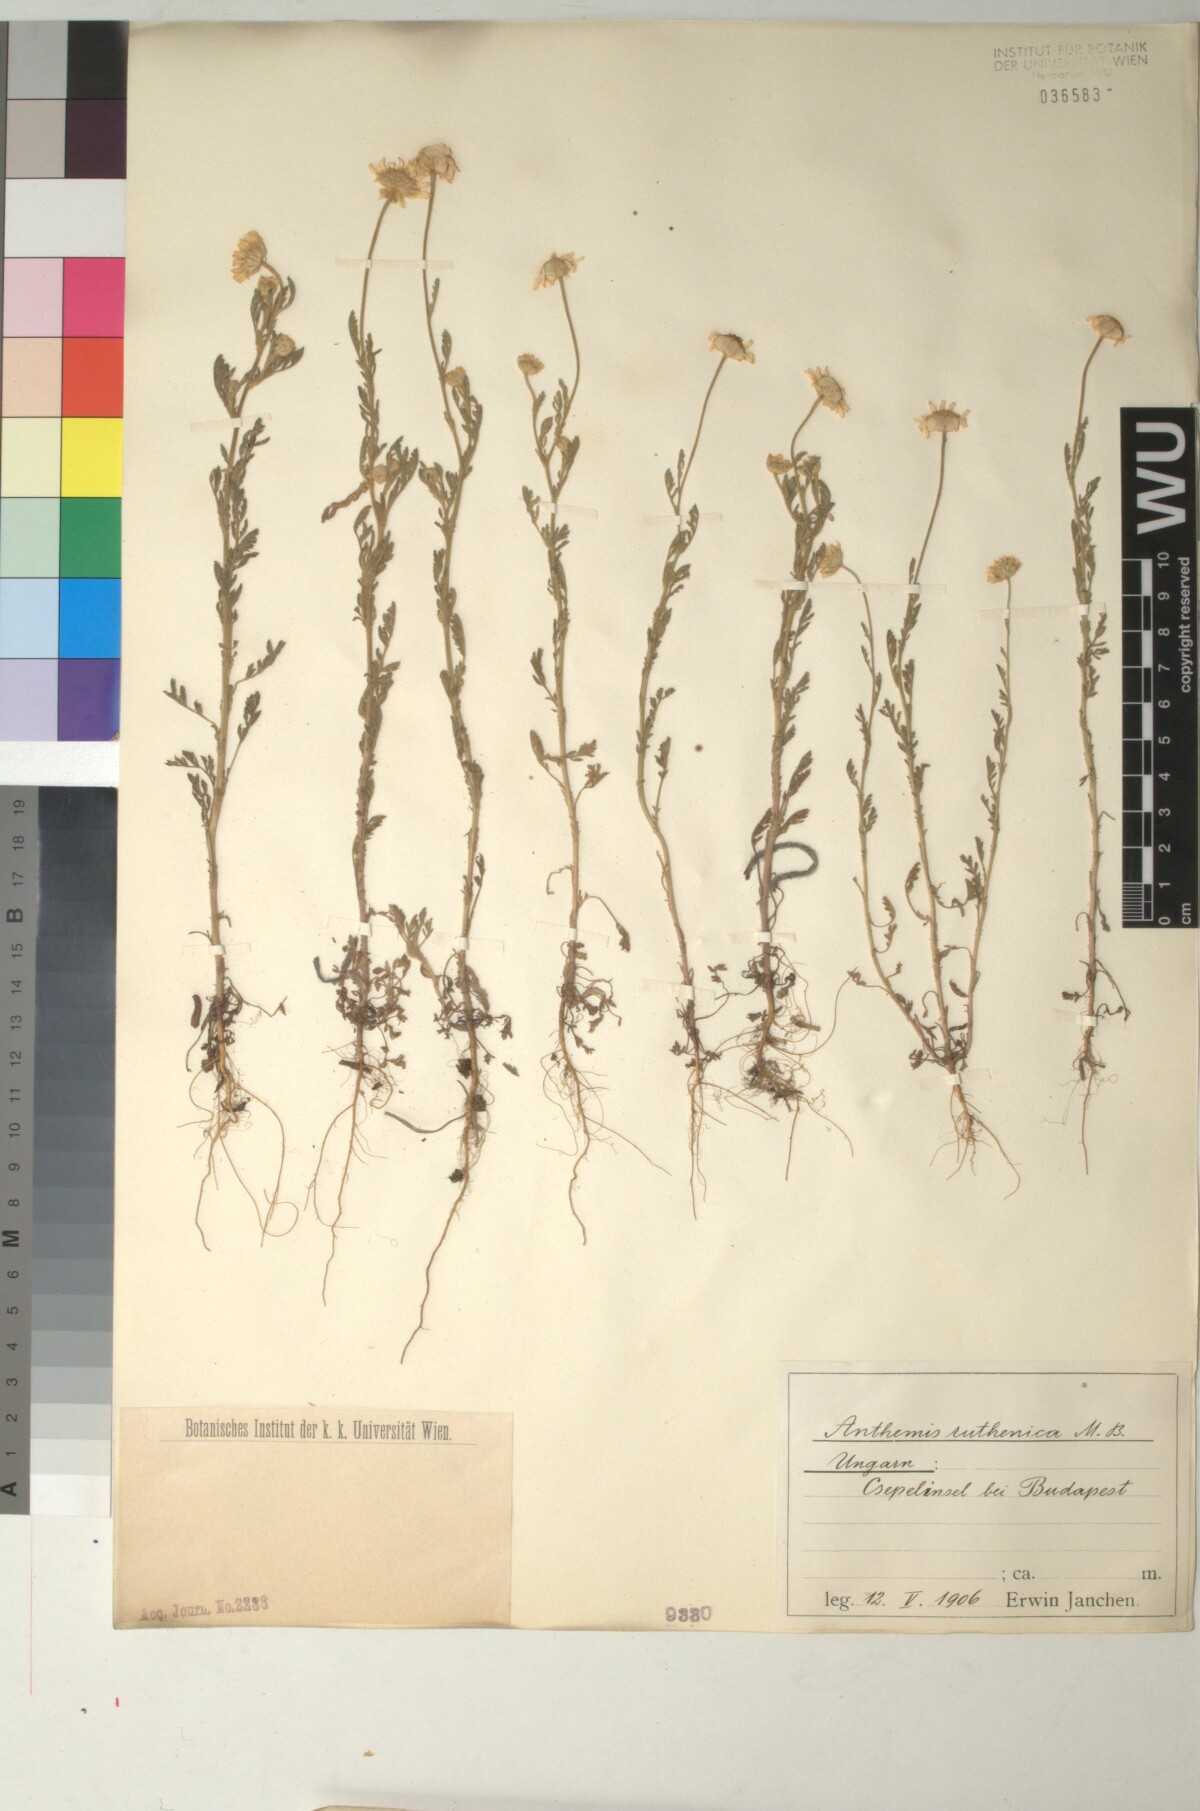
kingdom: Plantae
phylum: Tracheophyta
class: Magnoliopsida
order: Asterales
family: Asteraceae
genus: Anthemis
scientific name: Anthemis ruthenica
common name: Eastern chamomile
